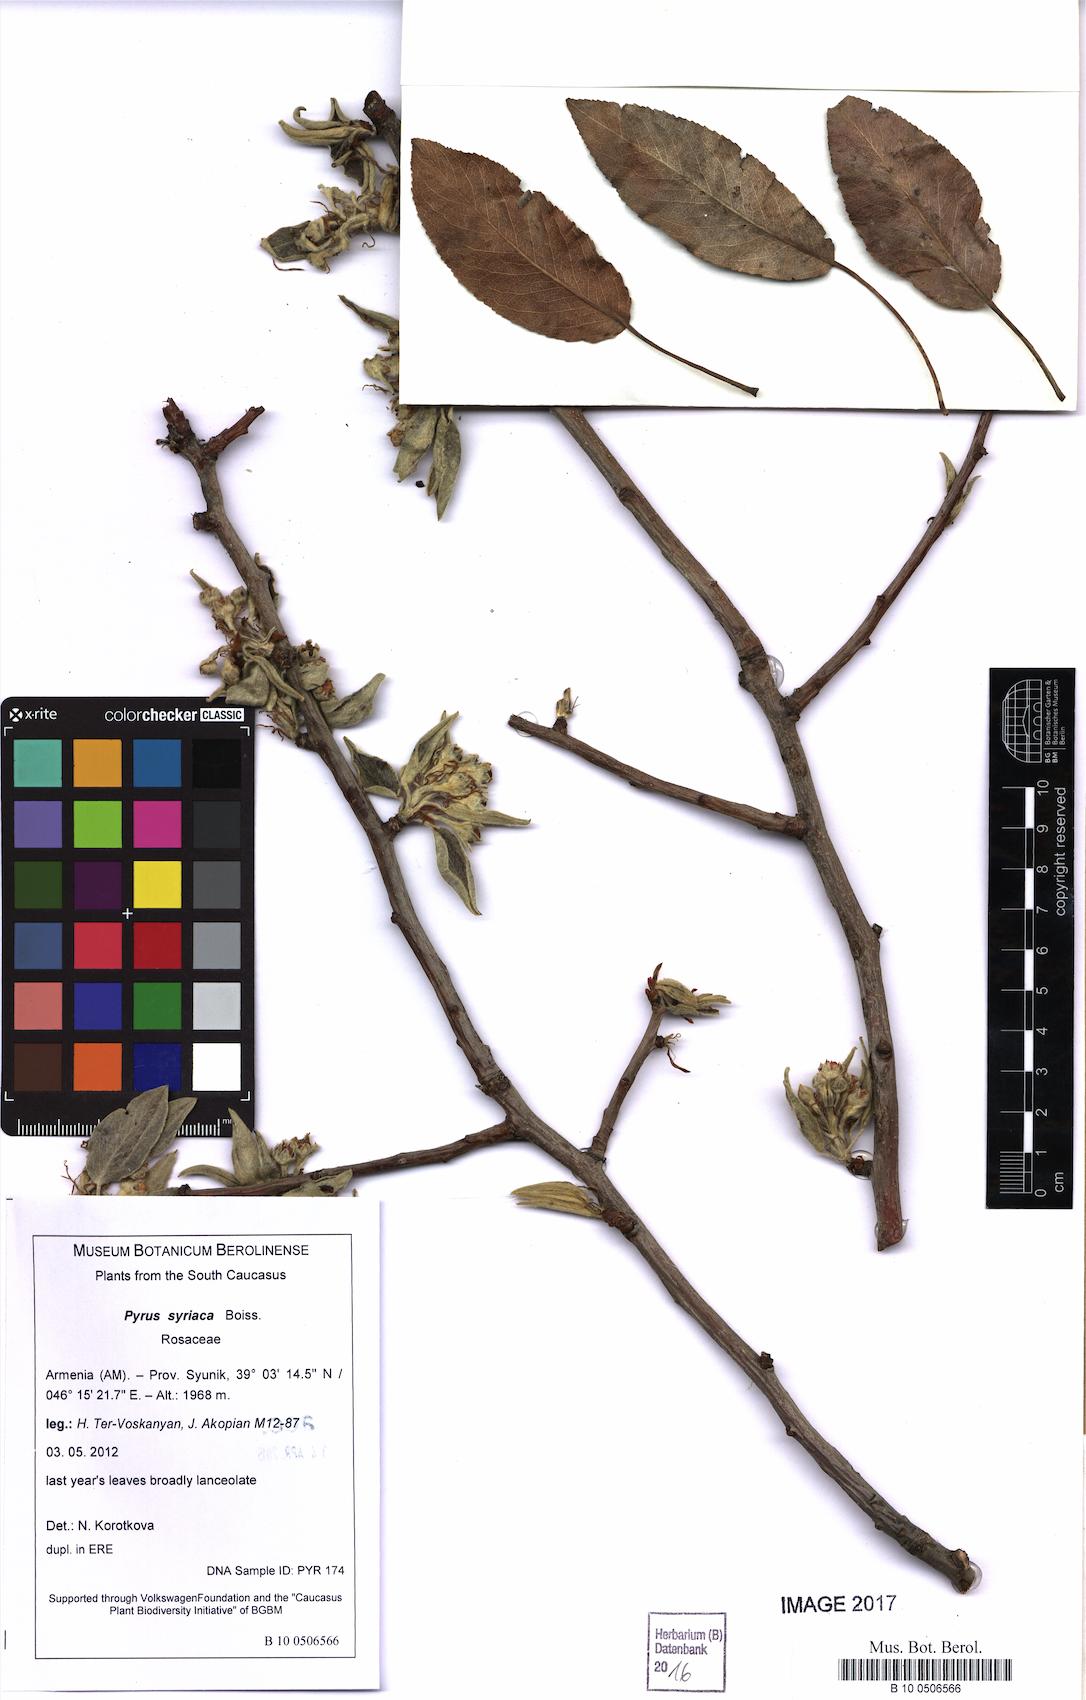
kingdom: Plantae
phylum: Tracheophyta
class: Magnoliopsida
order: Rosales
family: Rosaceae
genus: Pyrus
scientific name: Pyrus syriaca
